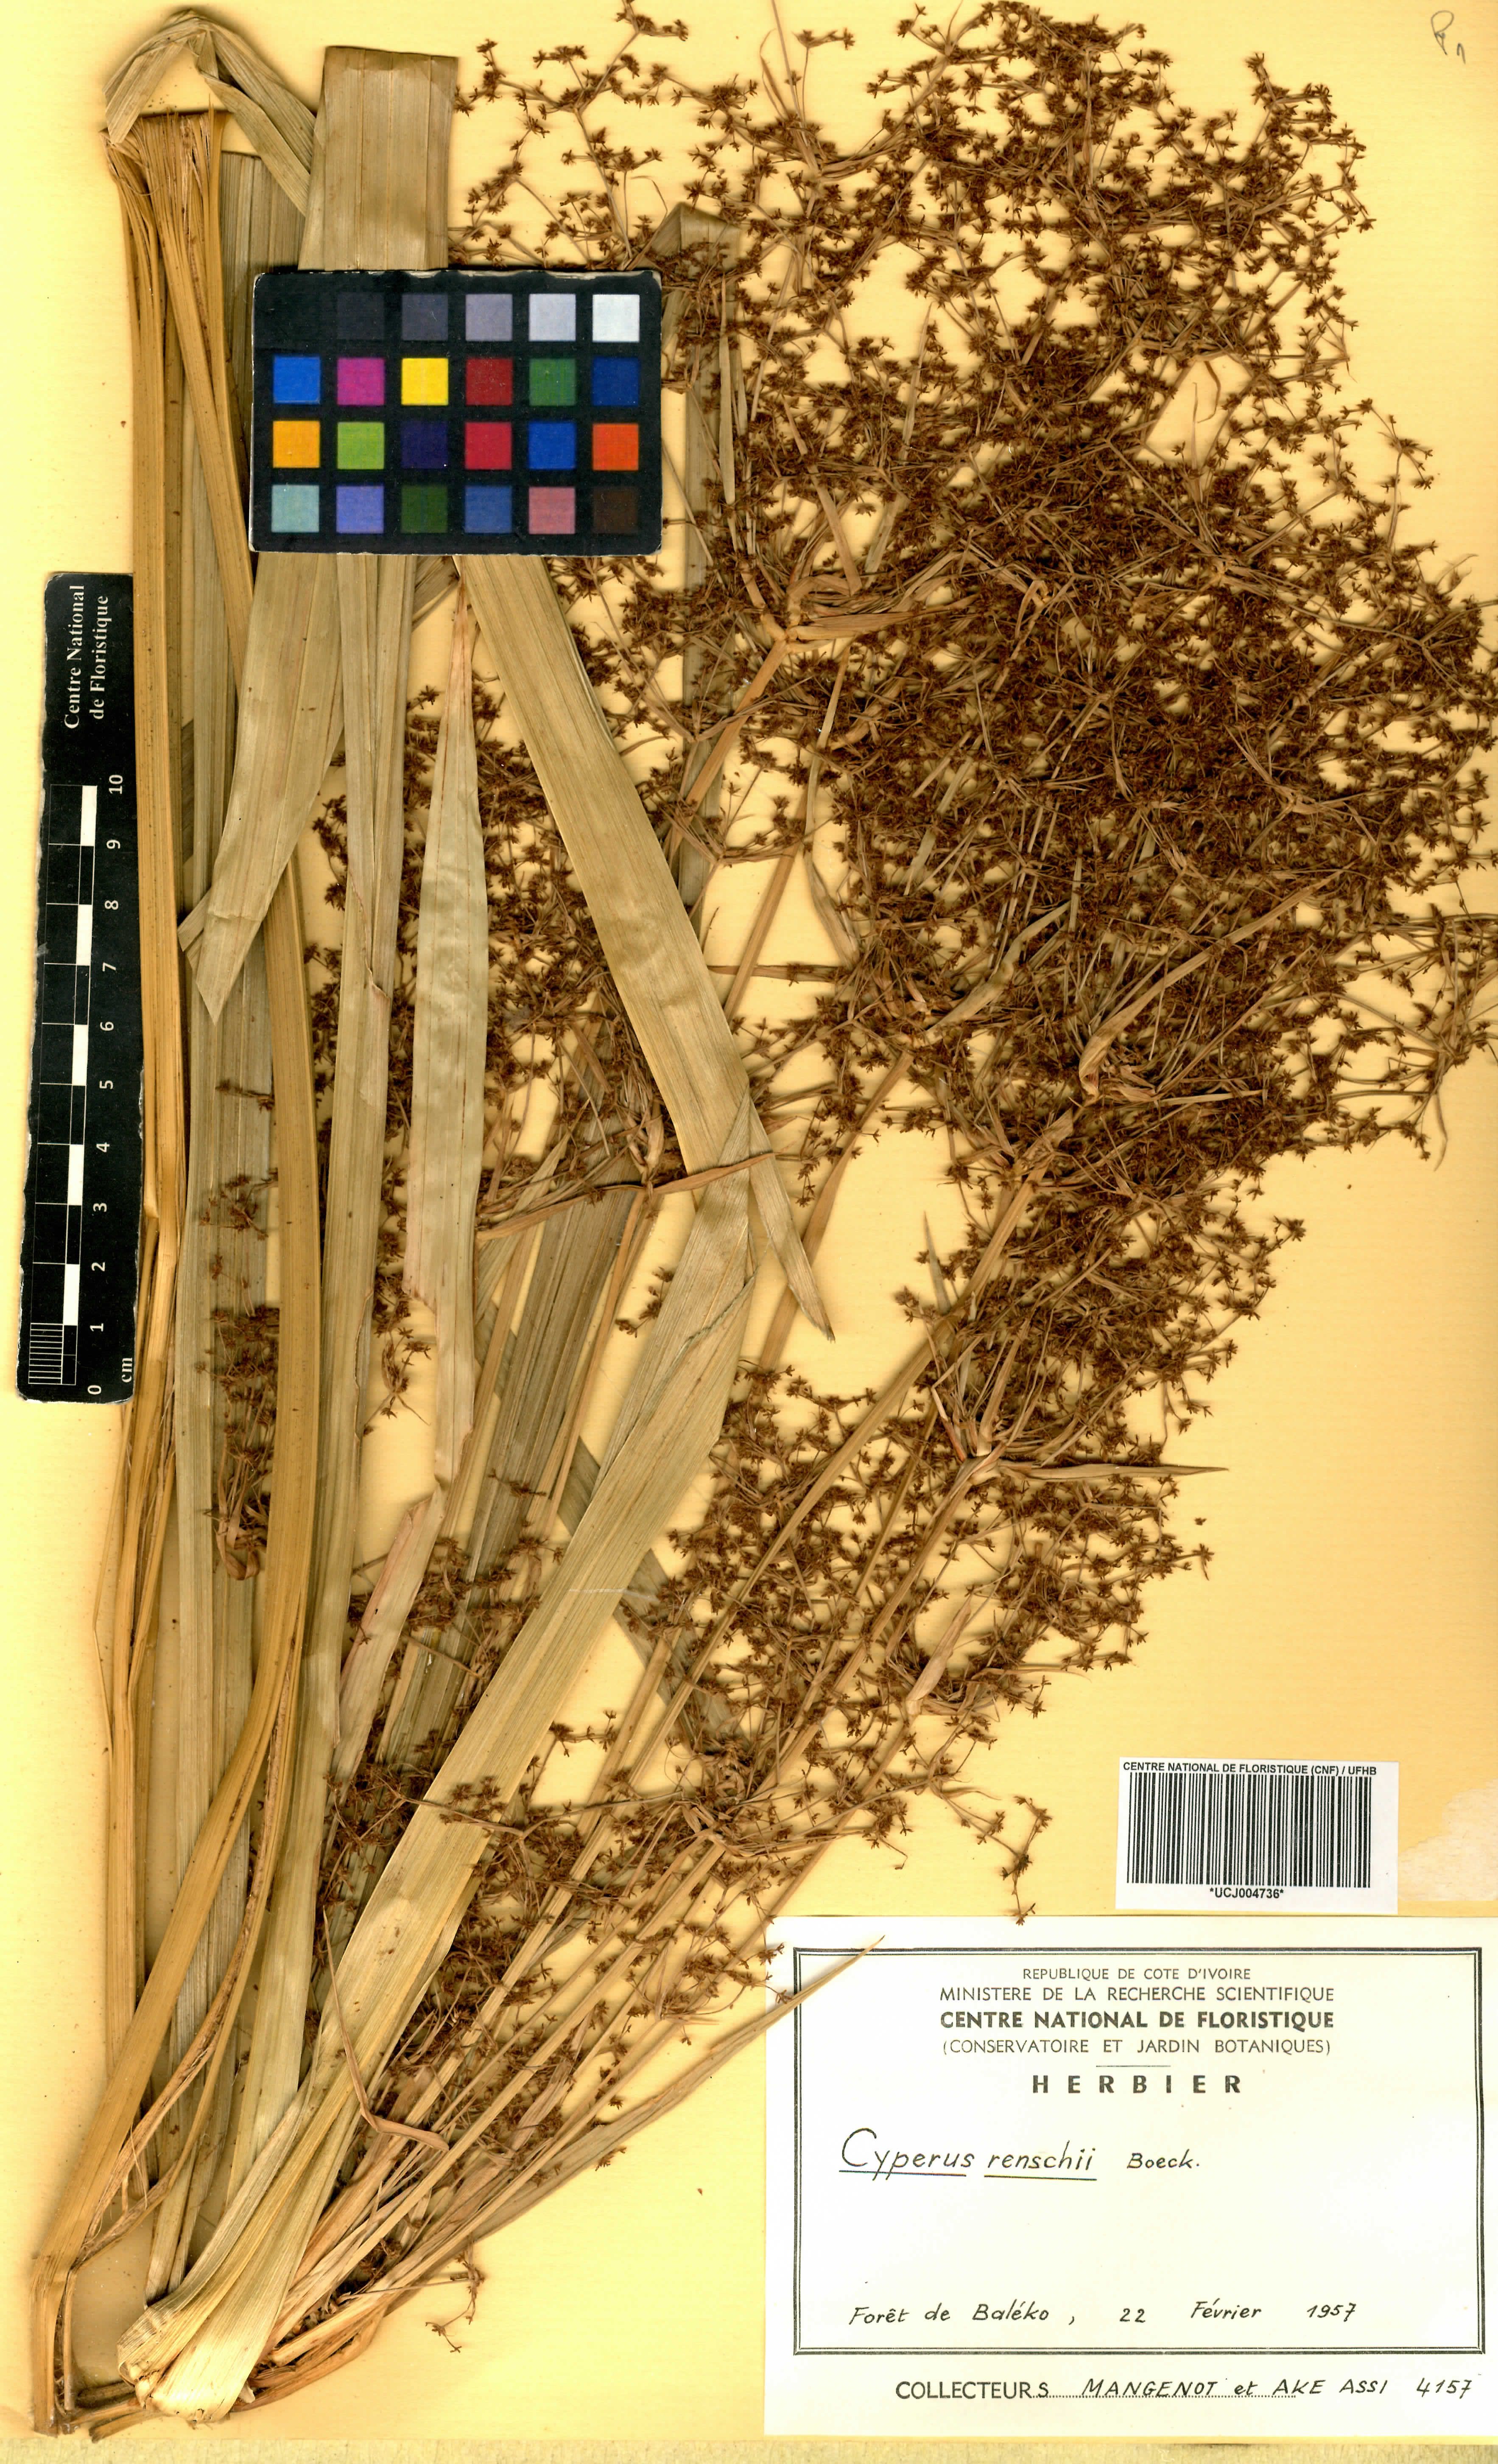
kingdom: Plantae
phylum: Tracheophyta
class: Liliopsida
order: Poales
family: Cyperaceae
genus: Cyperus
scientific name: Cyperus renschii
